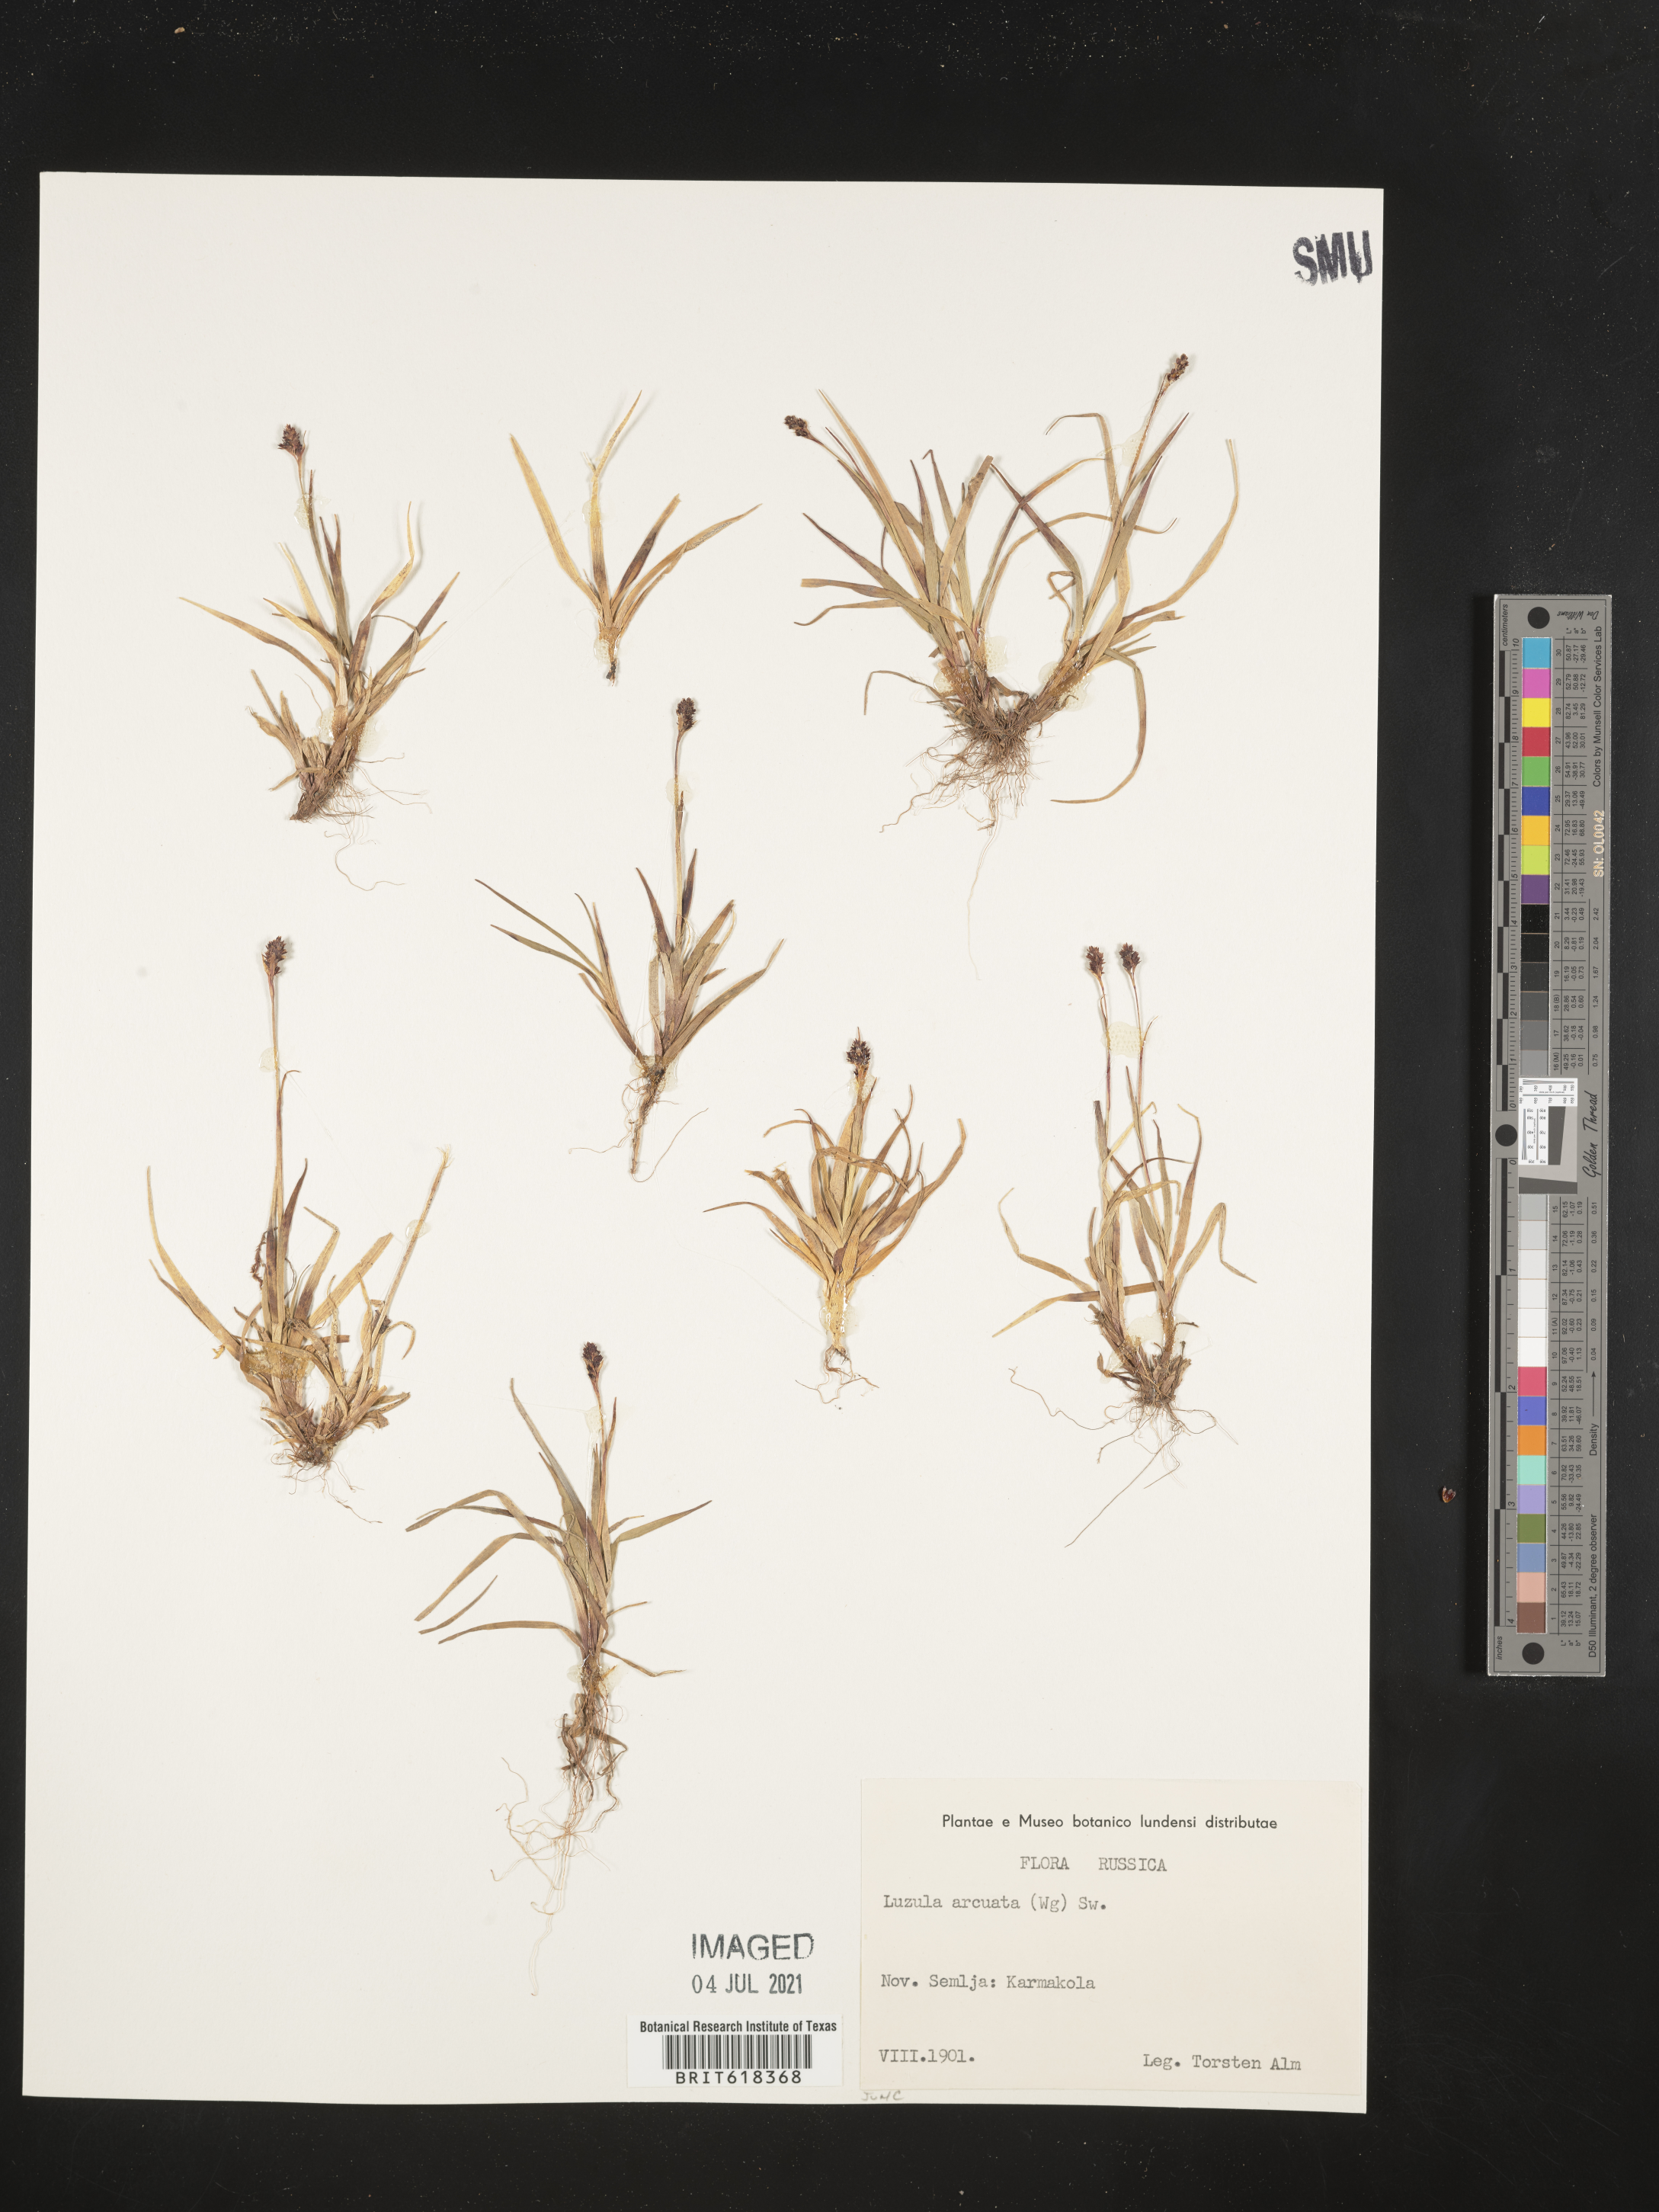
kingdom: Plantae
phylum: Tracheophyta
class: Liliopsida
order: Poales
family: Juncaceae
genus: Luzula
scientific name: Luzula arcuata
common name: Curved wood-rush
